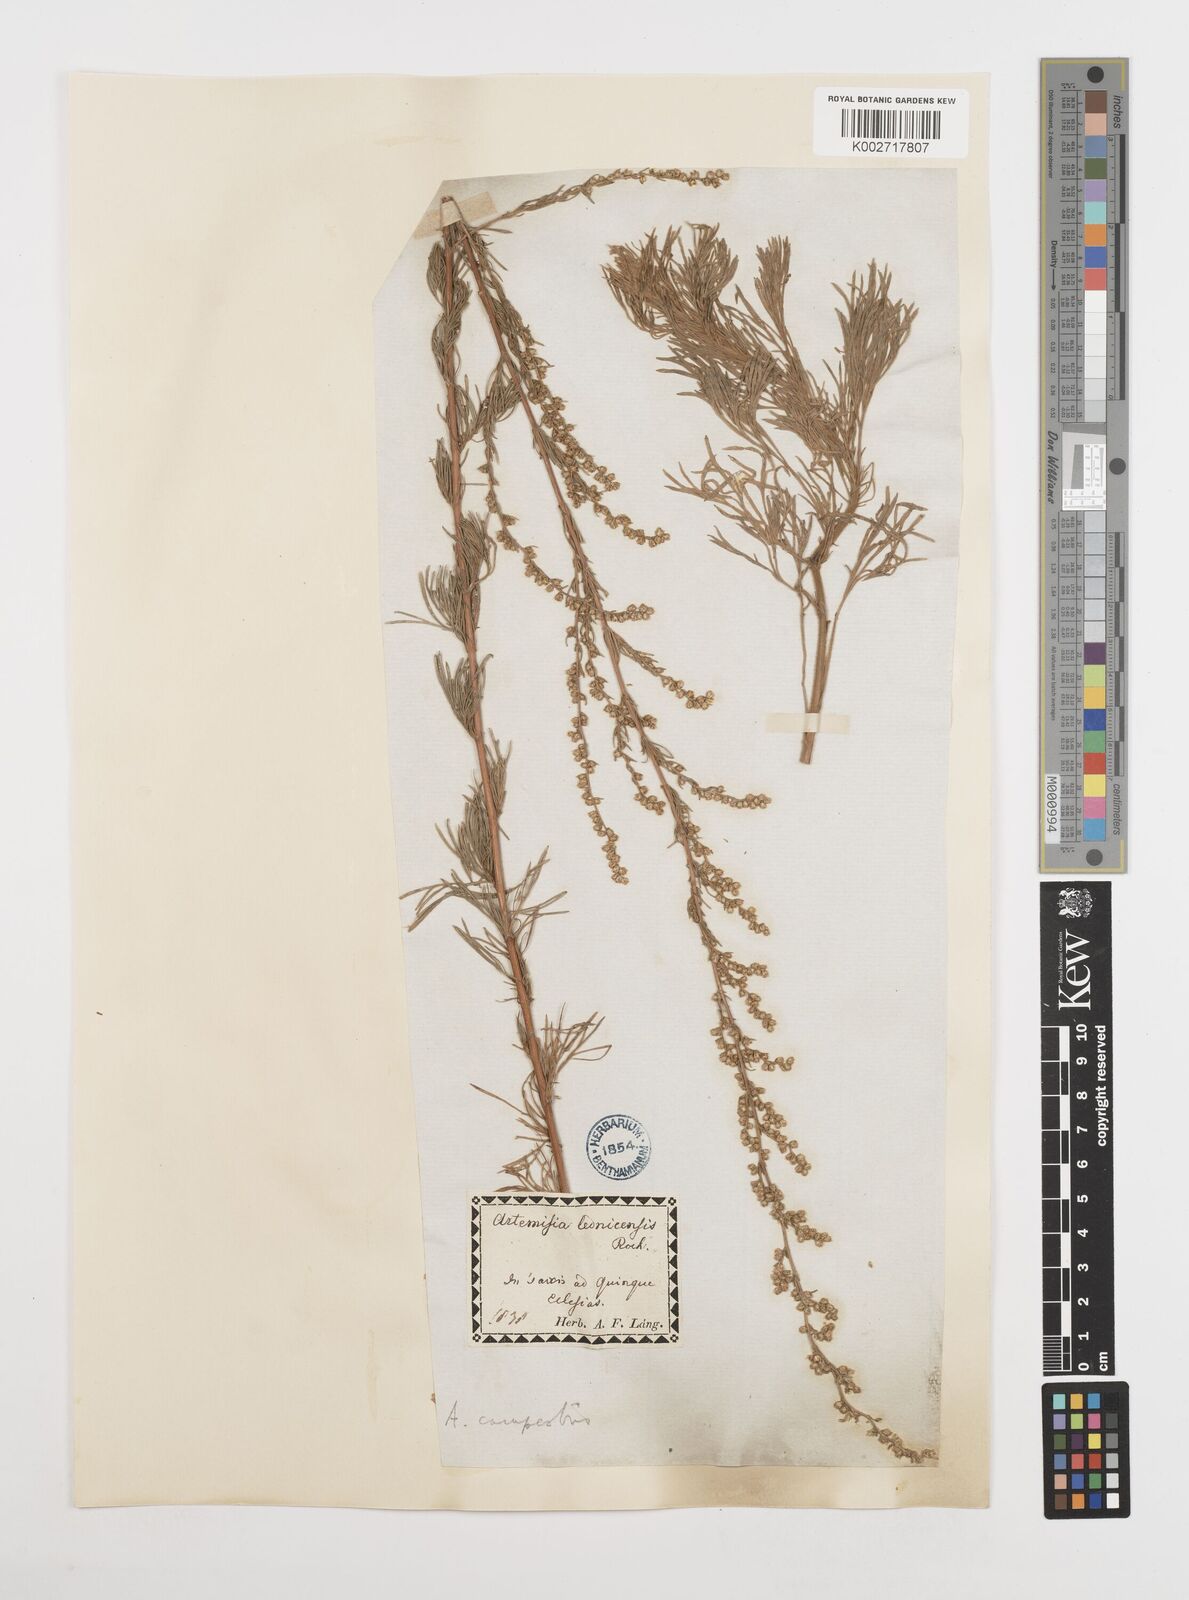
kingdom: Plantae
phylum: Tracheophyta
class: Magnoliopsida
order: Asterales
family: Asteraceae
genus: Artemisia
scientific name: Artemisia campestris
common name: Field wormwood
